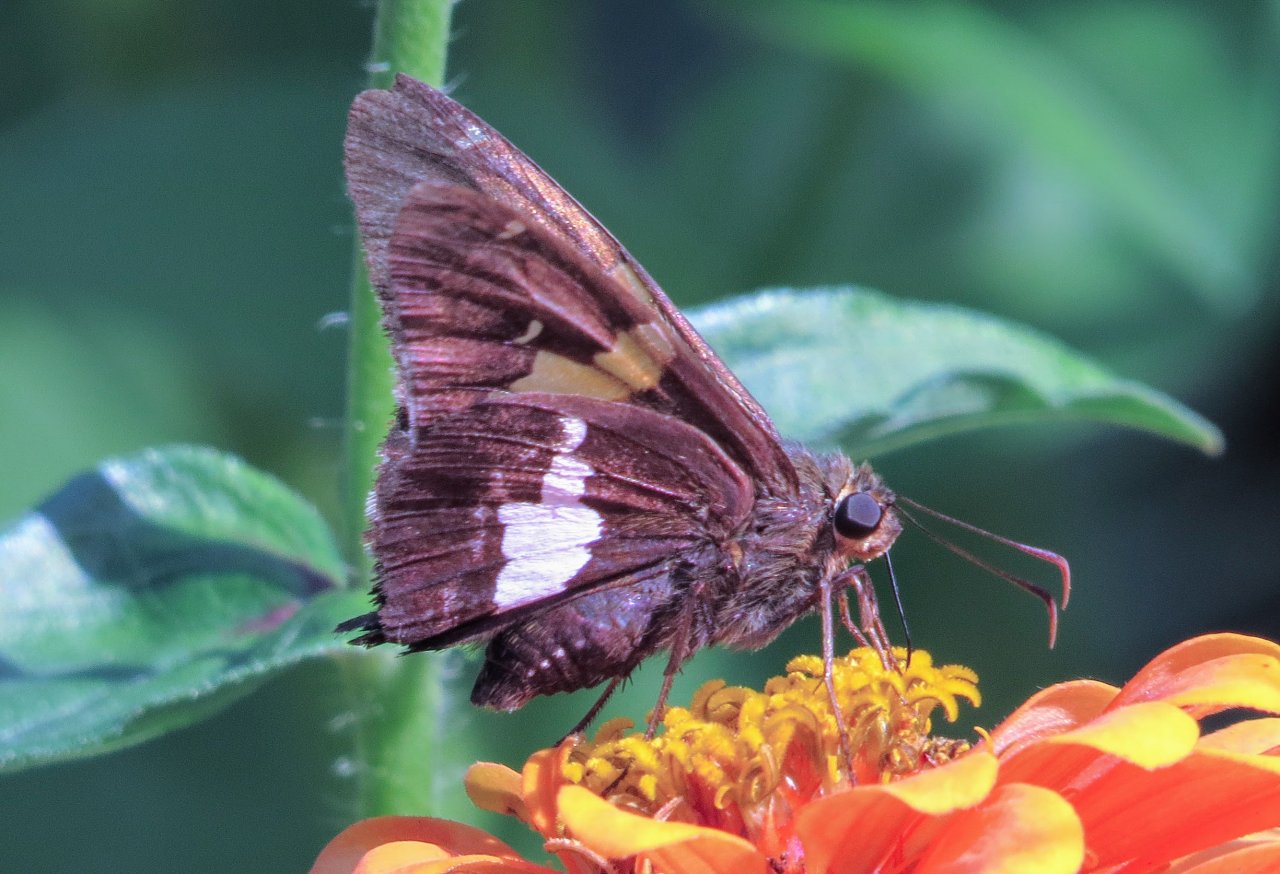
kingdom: Animalia
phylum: Arthropoda
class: Insecta
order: Lepidoptera
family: Hesperiidae
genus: Epargyreus
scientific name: Epargyreus clarus
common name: Silver-spotted Skipper
